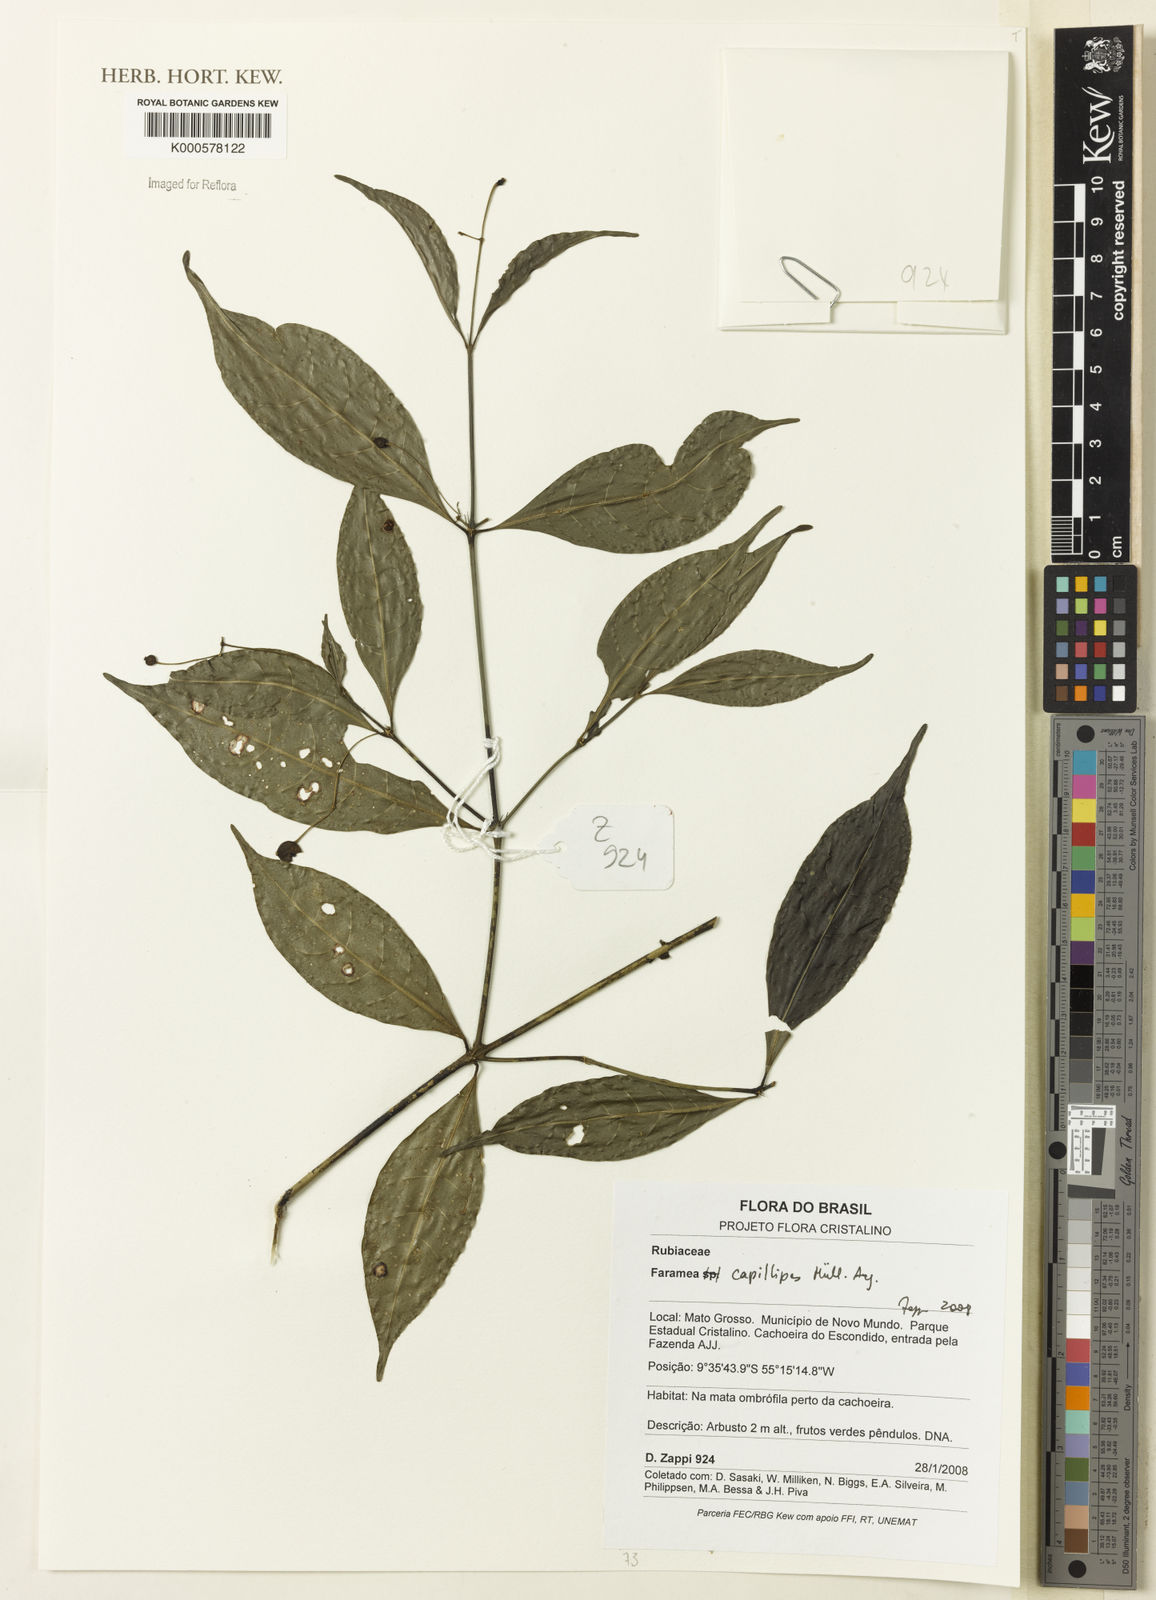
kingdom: Plantae
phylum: Tracheophyta
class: Magnoliopsida
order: Gentianales
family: Rubiaceae
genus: Faramea
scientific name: Faramea
